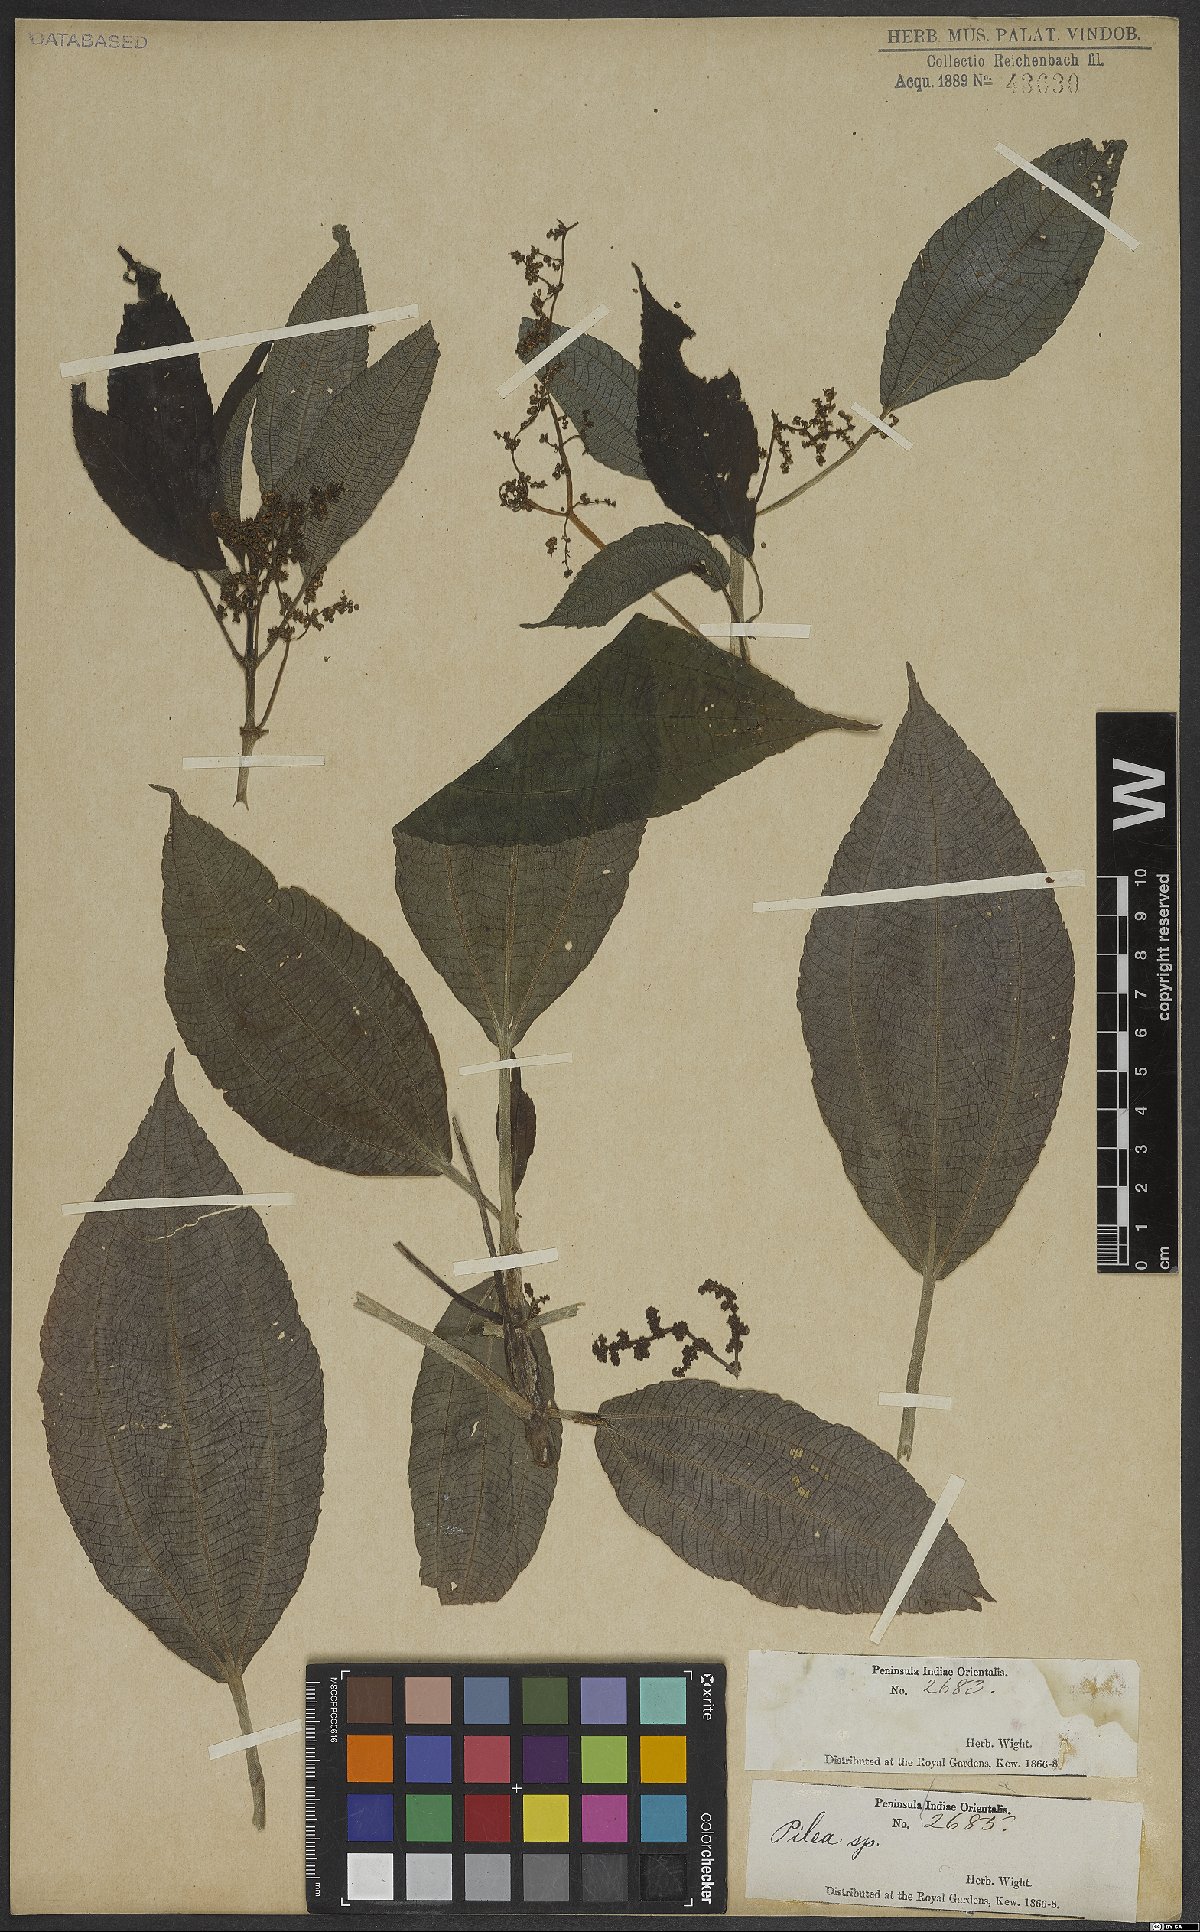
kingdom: Plantae
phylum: Tracheophyta
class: Magnoliopsida
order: Rosales
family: Urticaceae
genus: Pilea
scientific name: Pilea melastomoides
